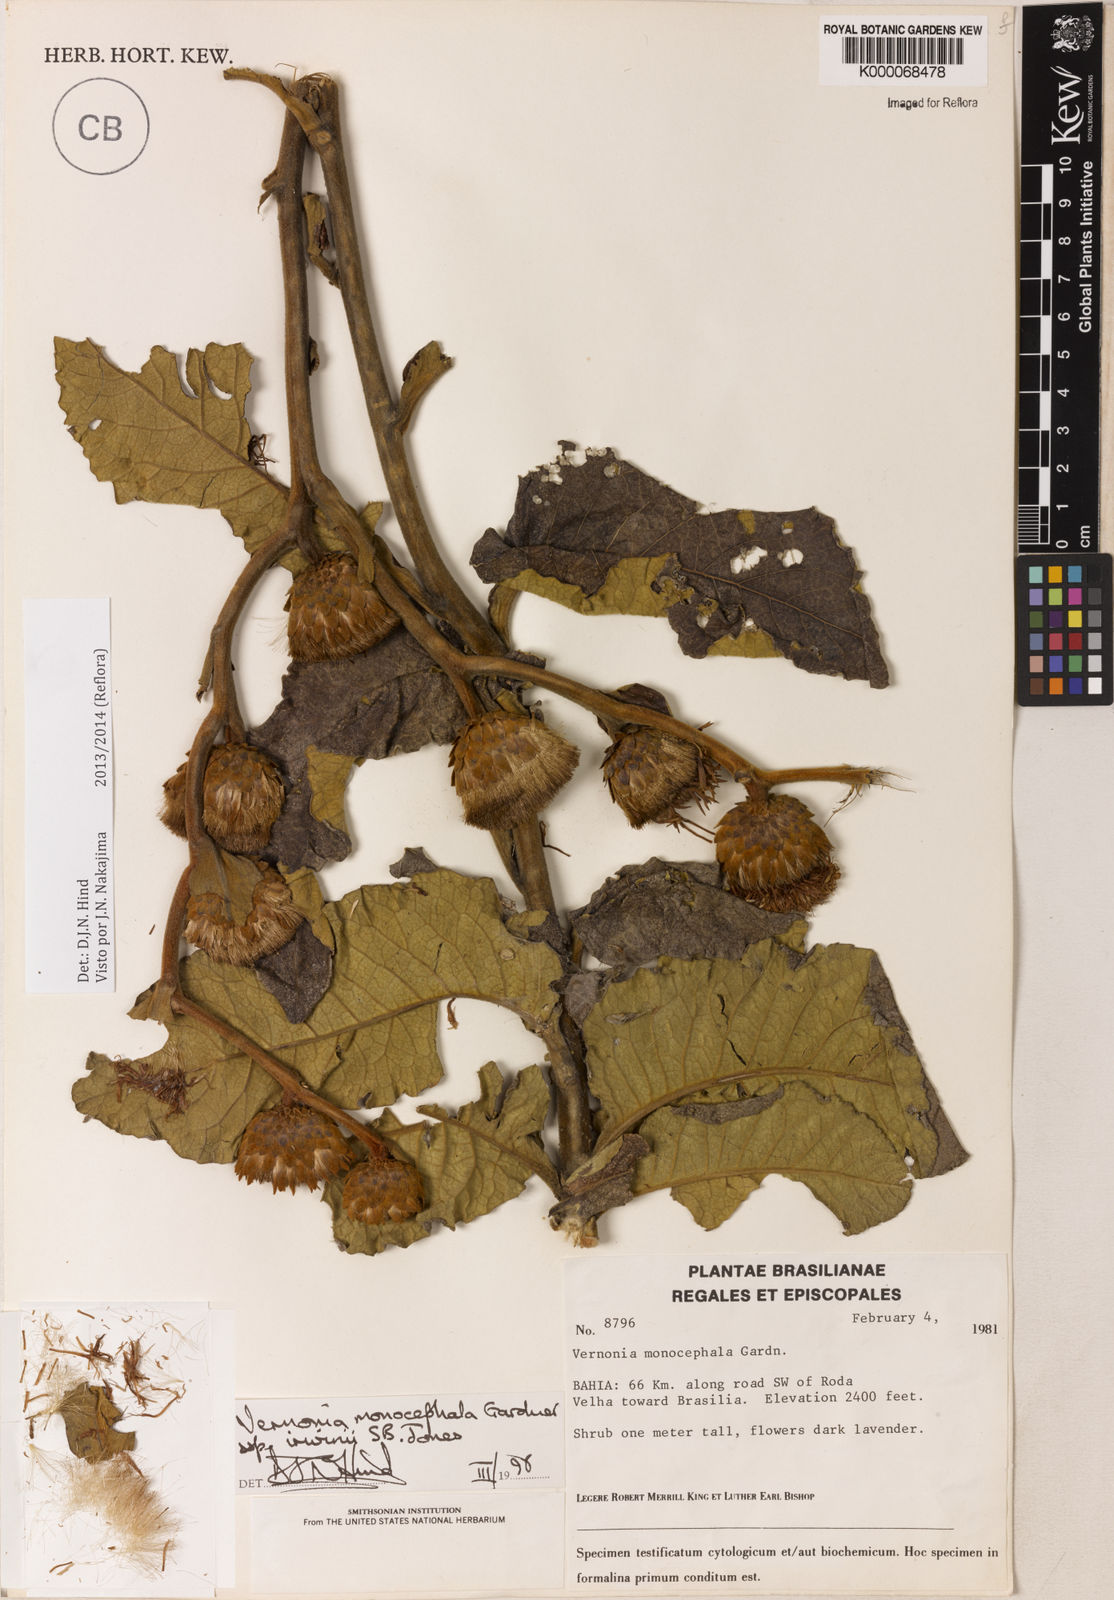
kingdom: Plantae
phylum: Tracheophyta
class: Magnoliopsida
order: Asterales
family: Asteraceae
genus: Lessingianthus
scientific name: Lessingianthus semirii
